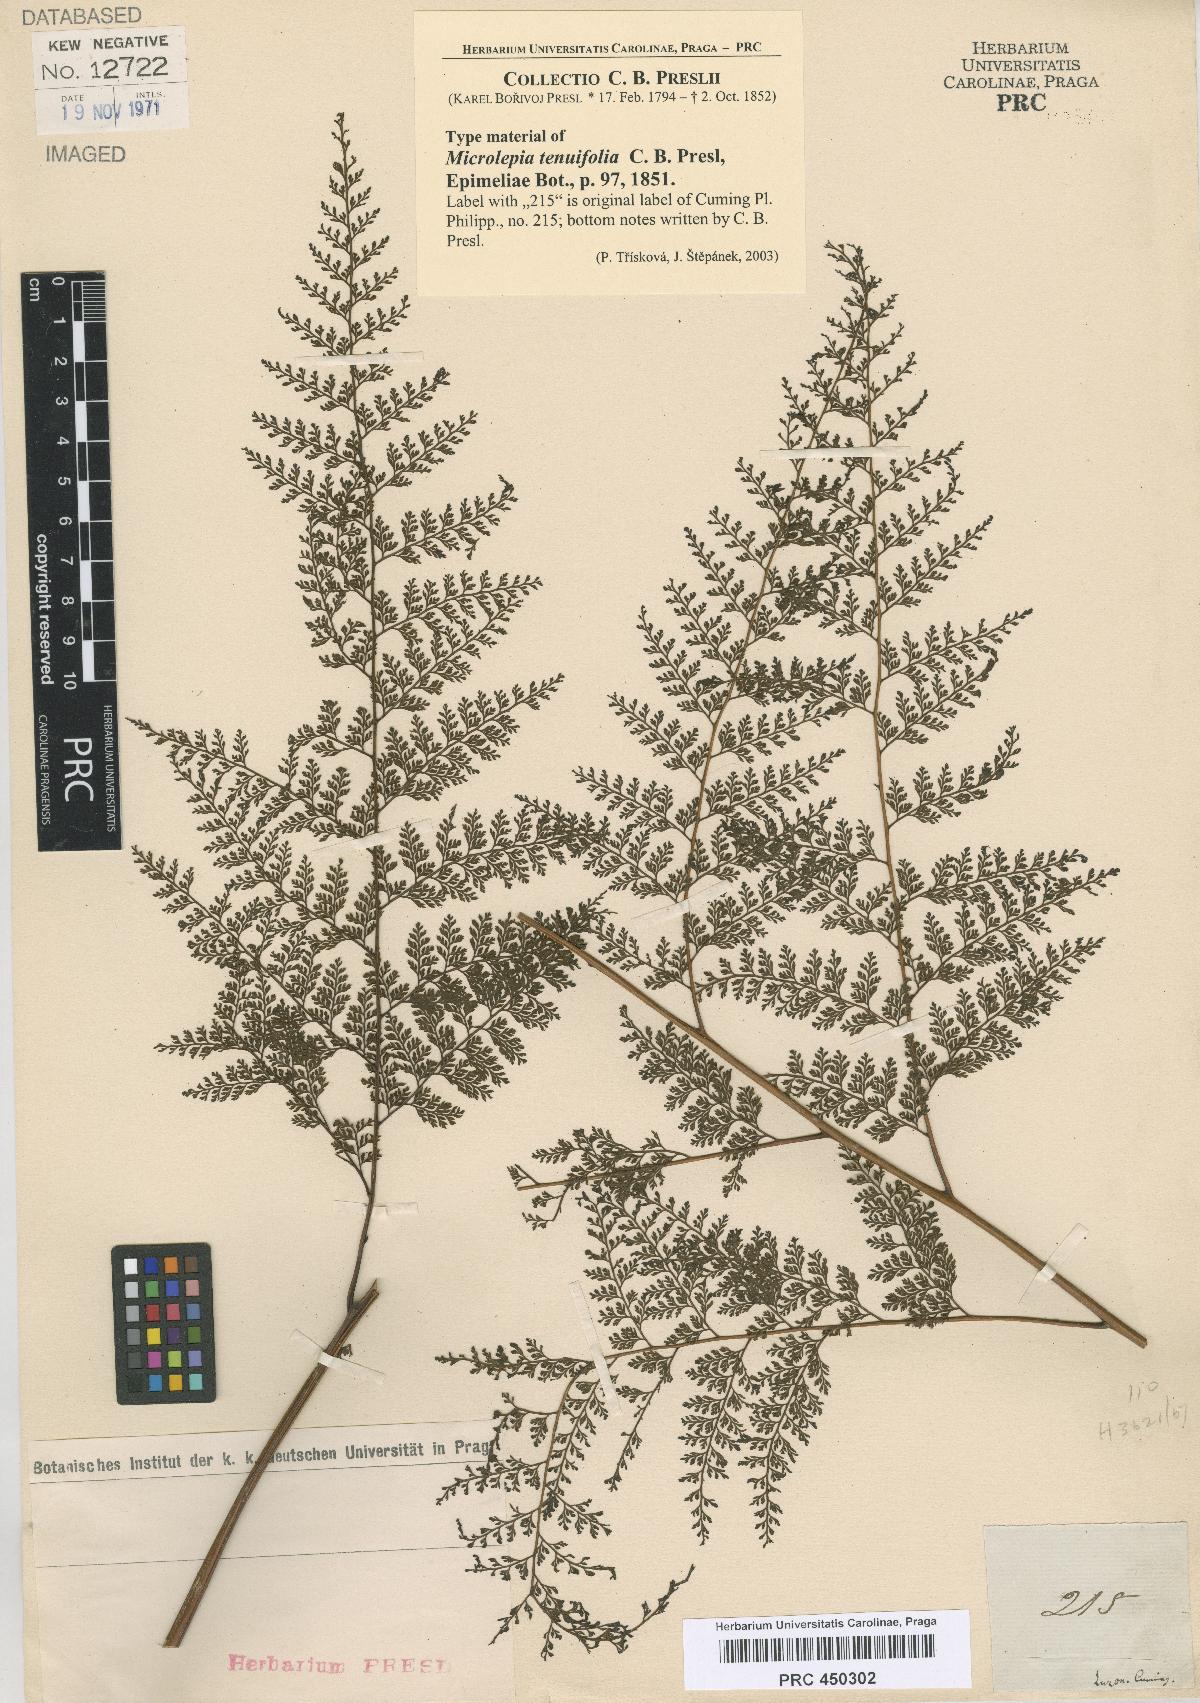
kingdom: Plantae
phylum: Tracheophyta
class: Polypodiopsida
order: Polypodiales
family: Davalliaceae
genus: Davallodes
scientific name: Davallodes hymenophylloides
